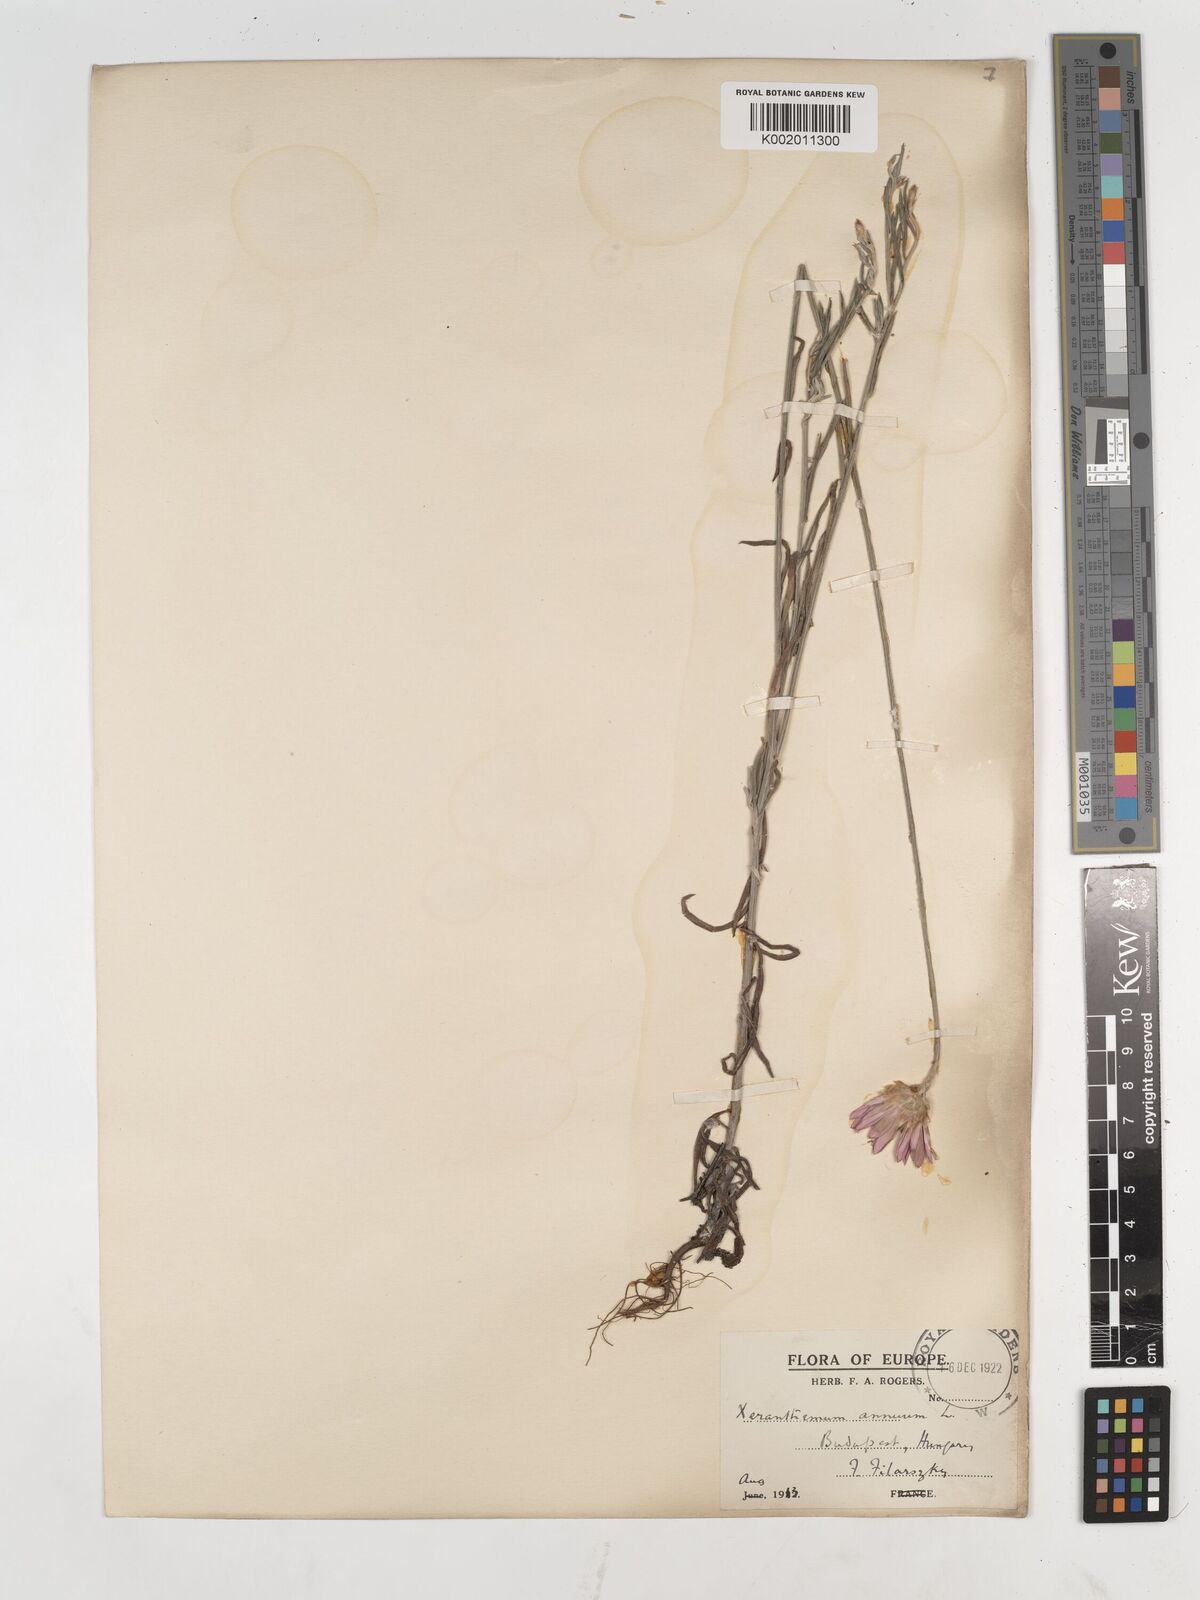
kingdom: Plantae
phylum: Tracheophyta
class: Magnoliopsida
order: Asterales
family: Asteraceae
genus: Xeranthemum
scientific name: Xeranthemum annuum
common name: Immortelle
